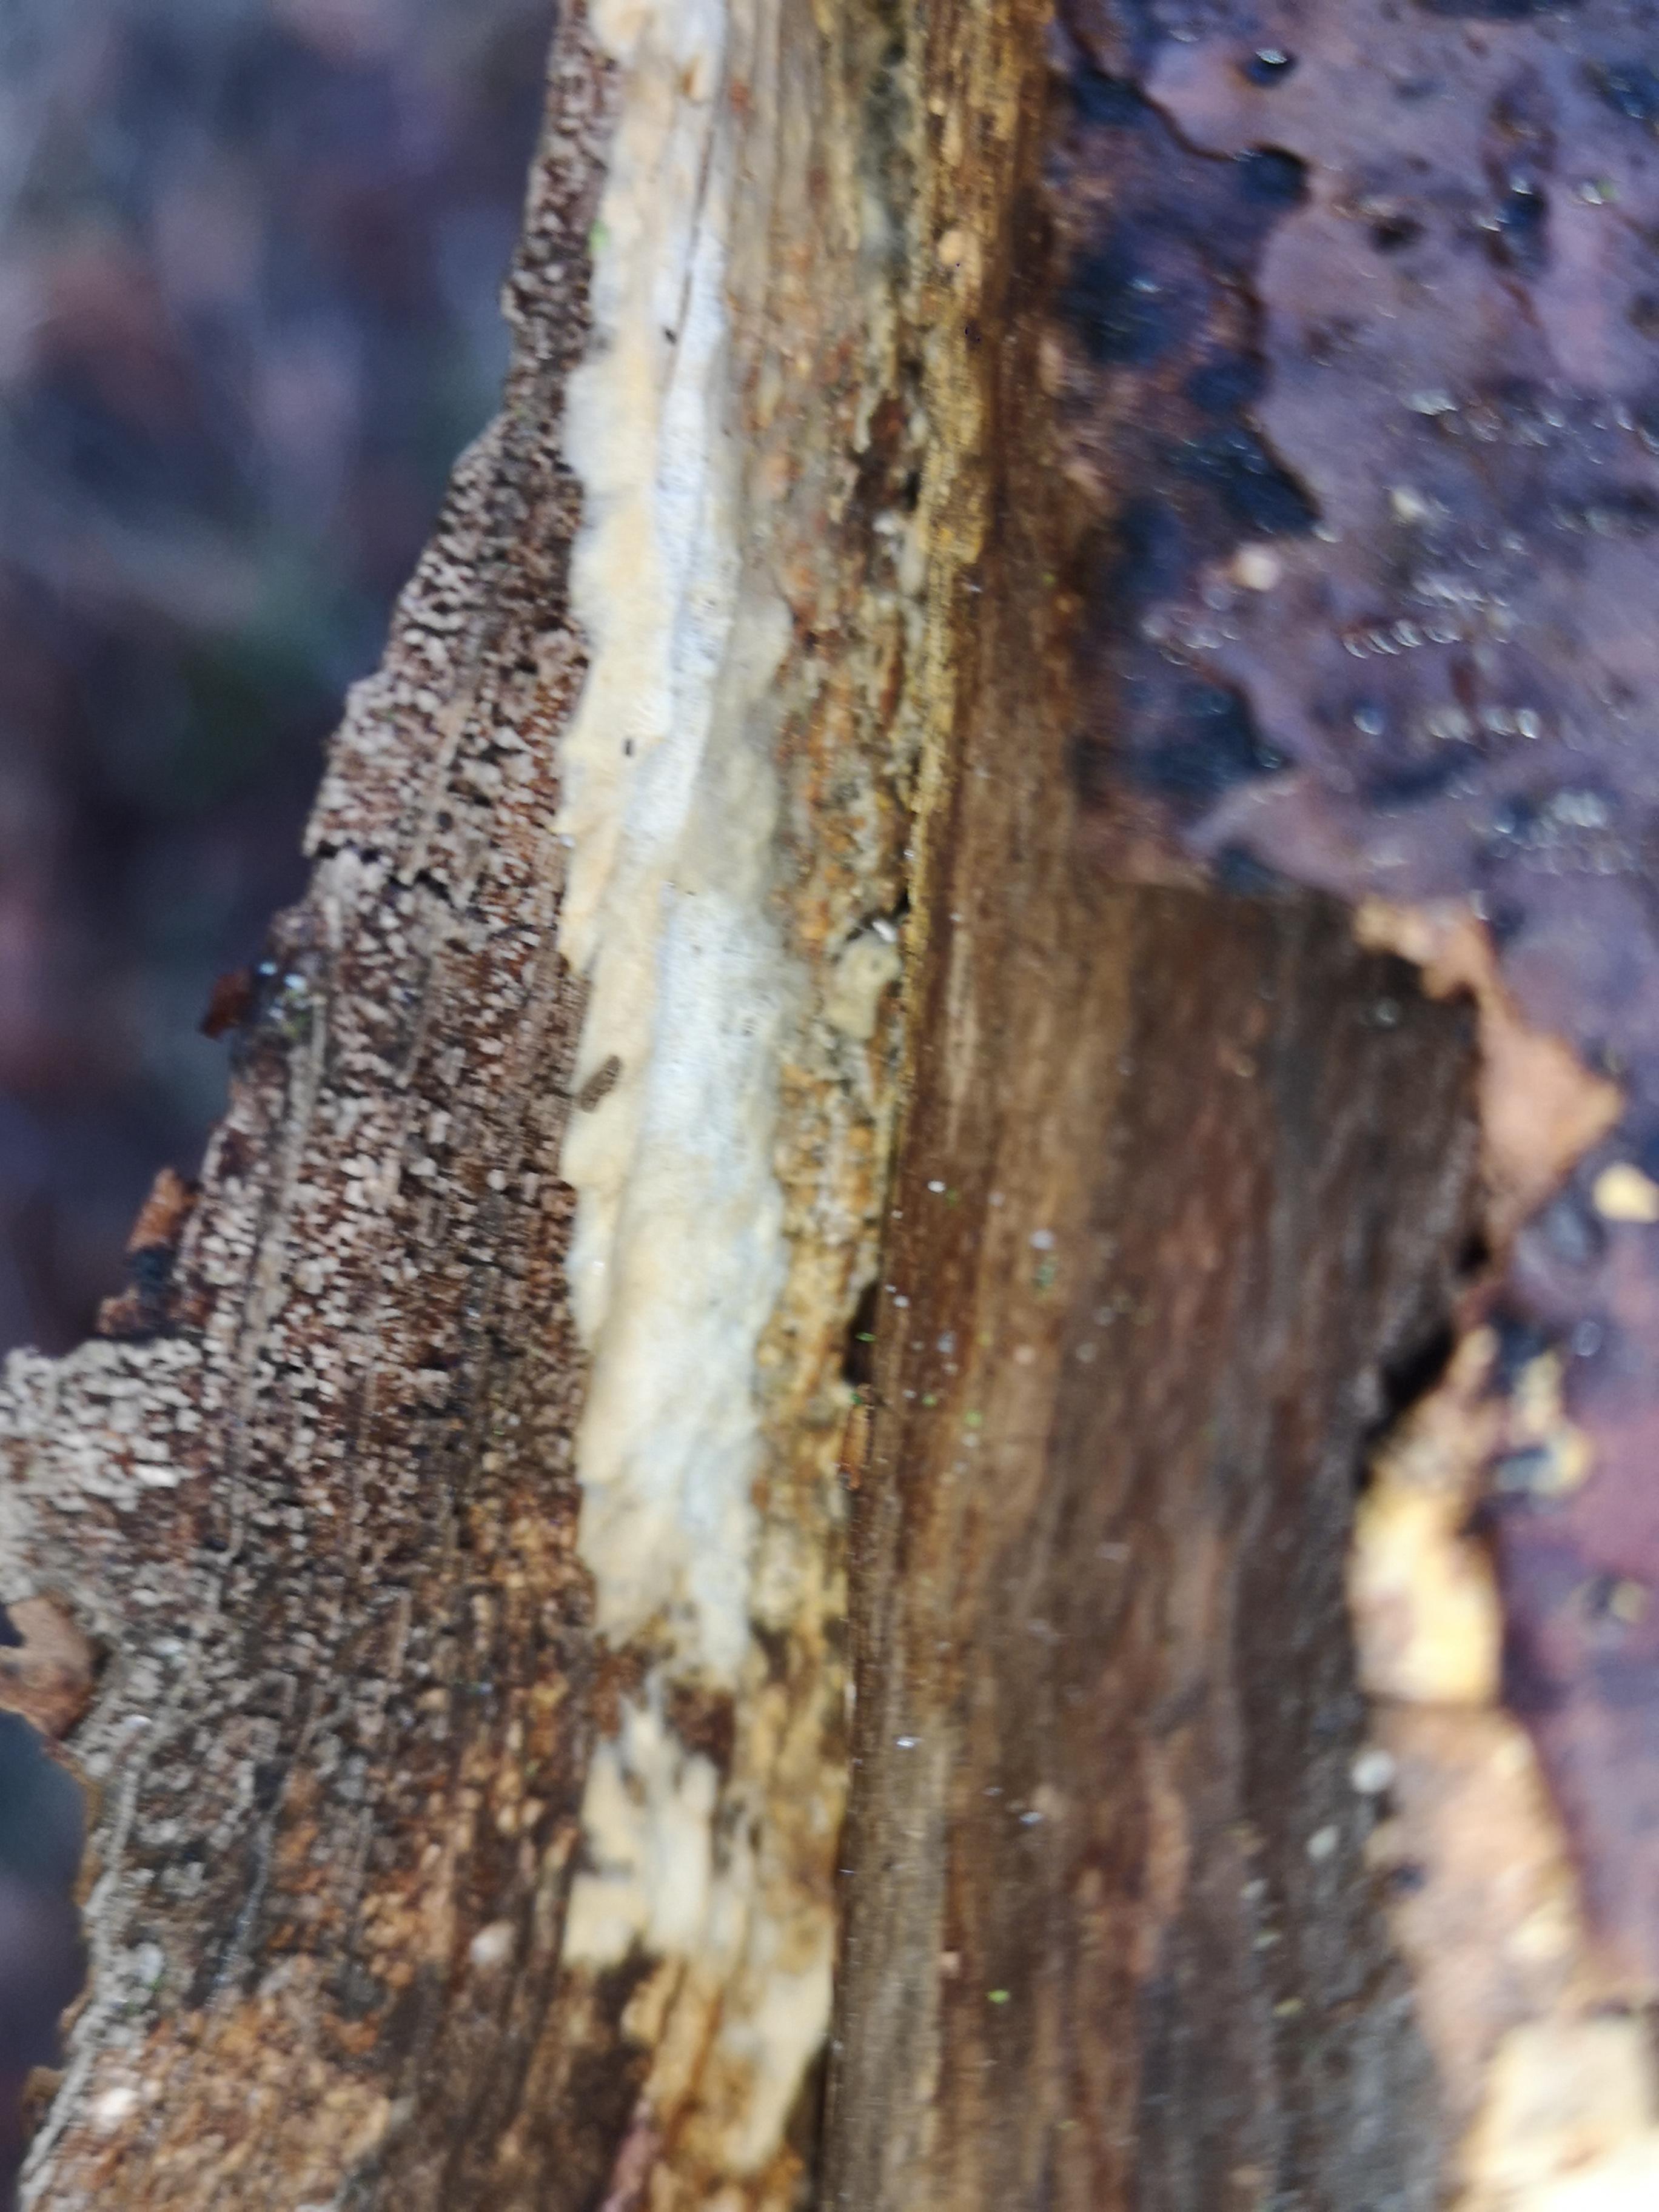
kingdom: Fungi
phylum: Basidiomycota
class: Agaricomycetes
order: Corticiales
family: Corticiaceae
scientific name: Corticiaceae
